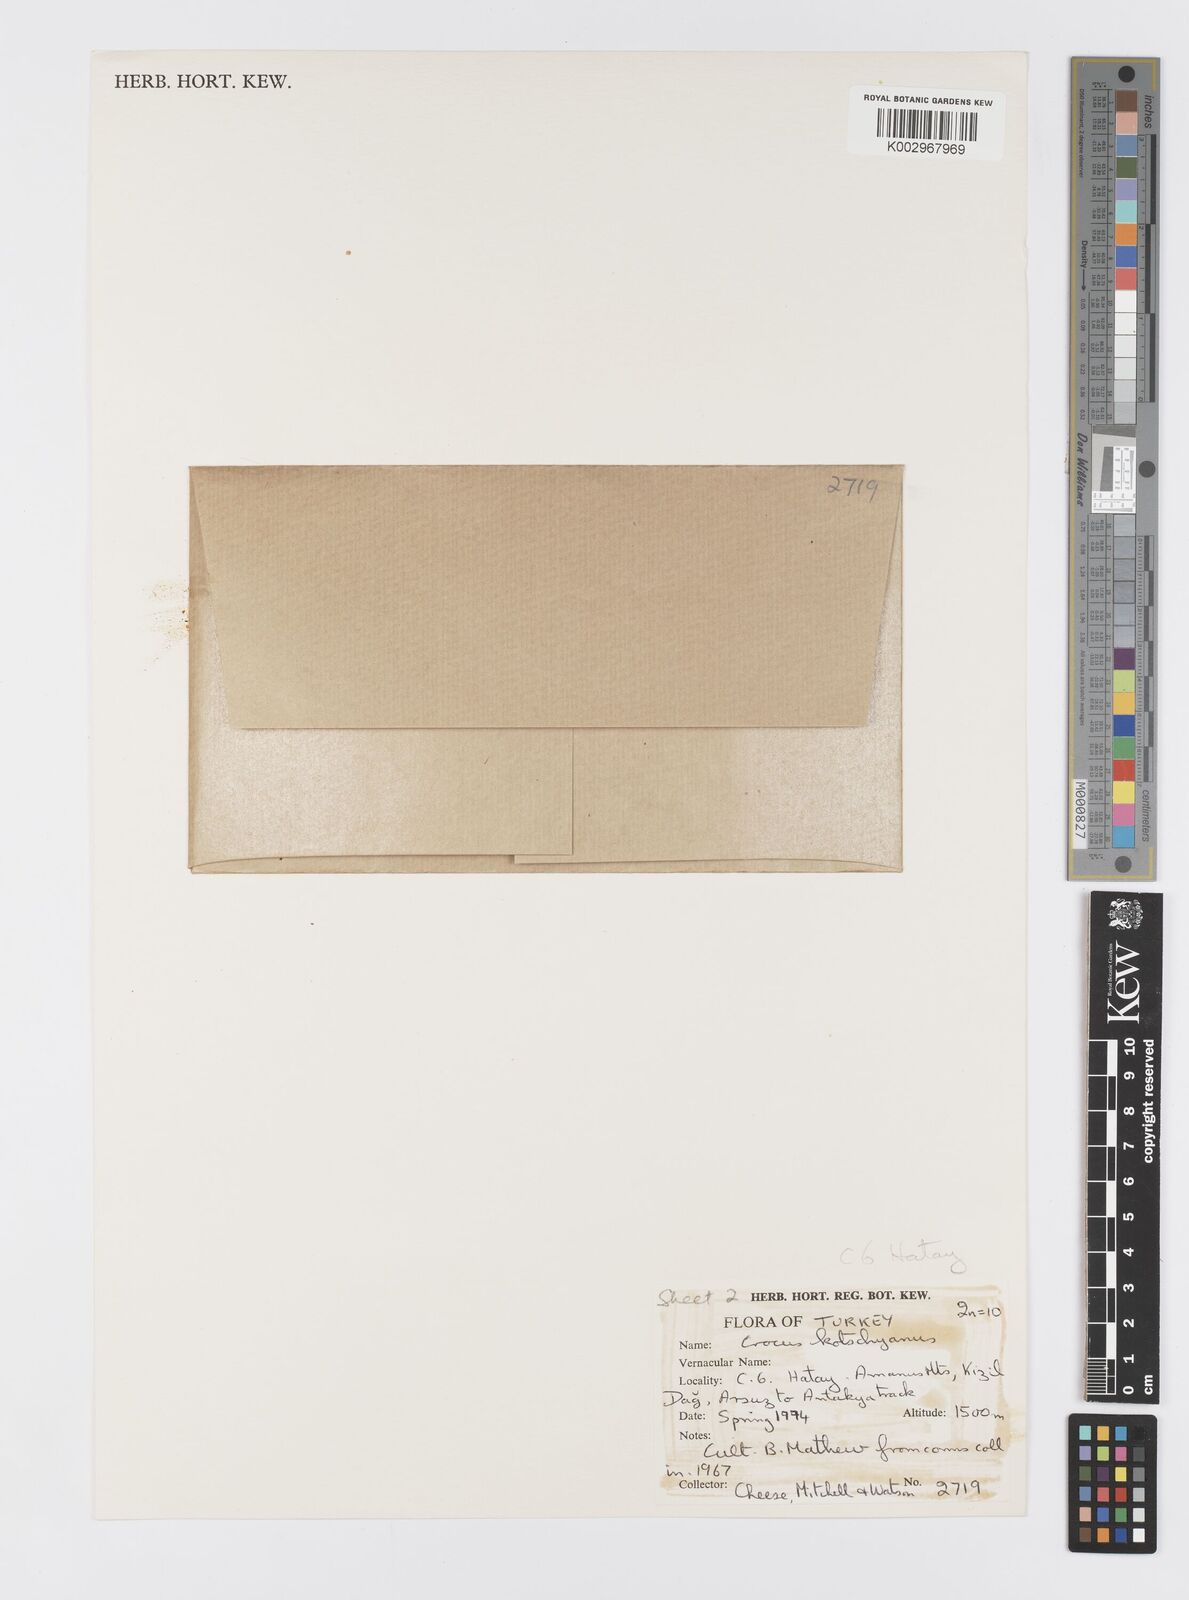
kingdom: Plantae
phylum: Tracheophyta
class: Liliopsida
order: Asparagales
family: Iridaceae
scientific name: Iridaceae
